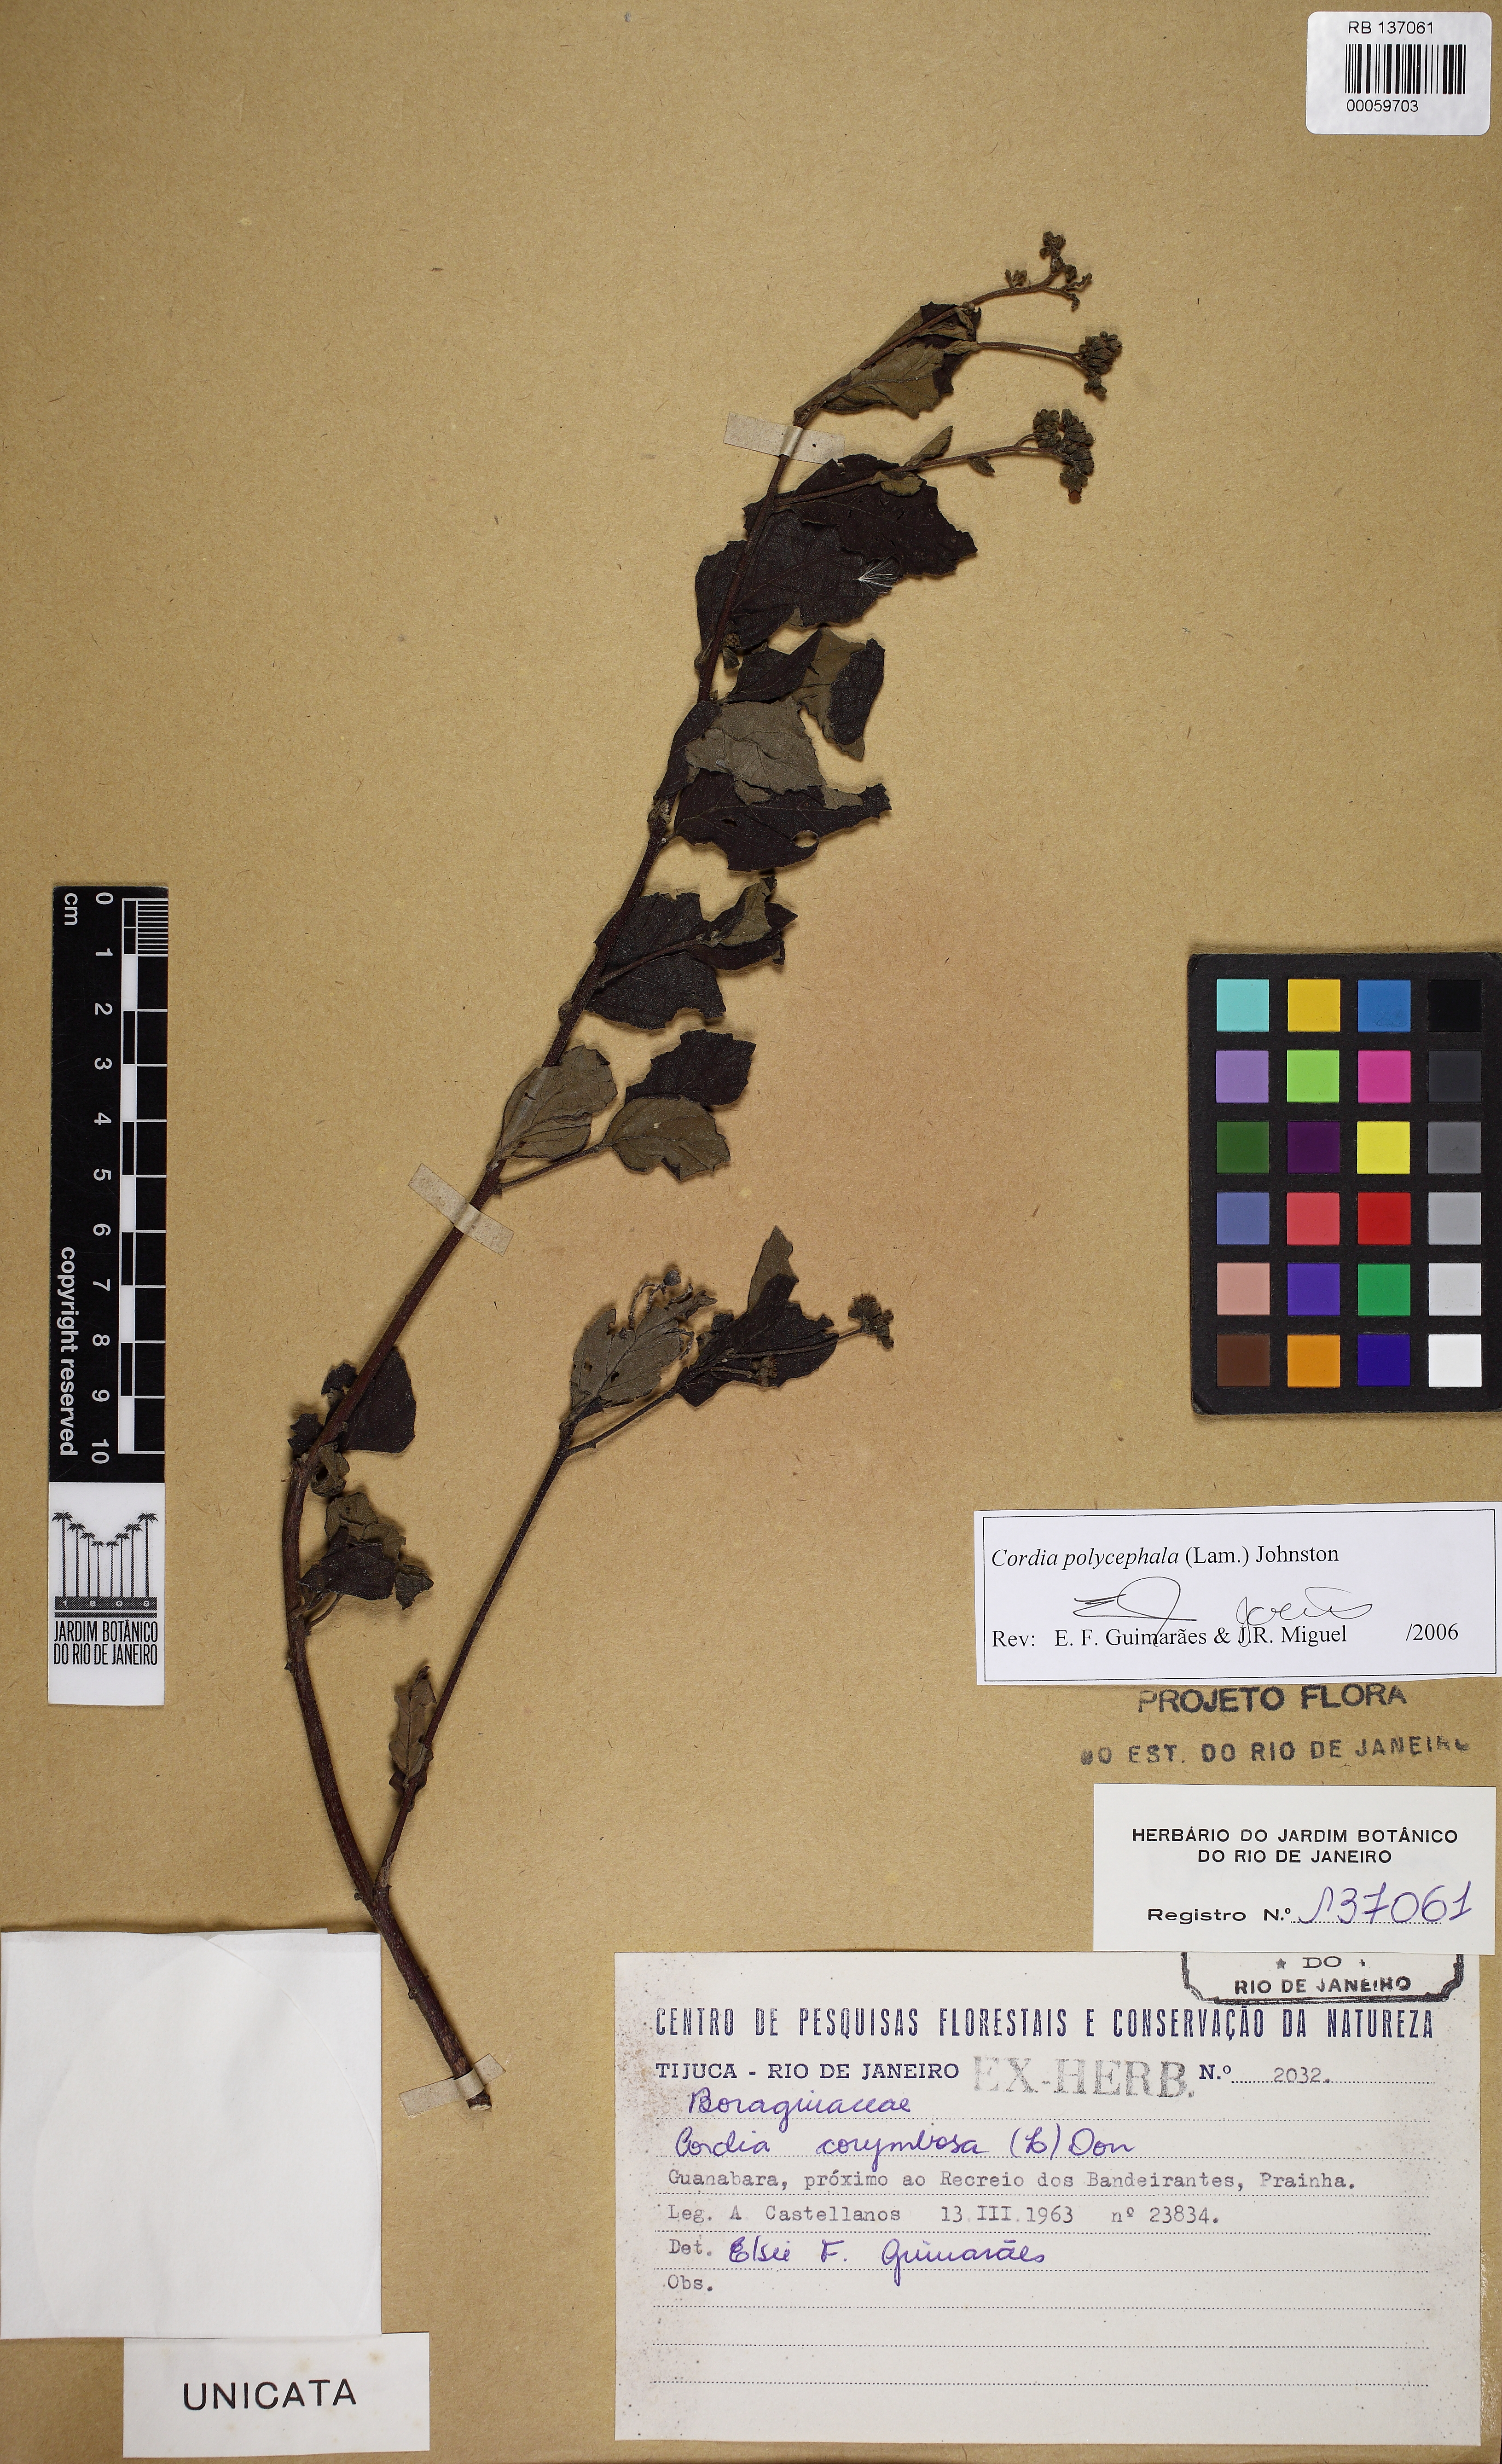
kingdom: Plantae
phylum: Tracheophyta
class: Magnoliopsida
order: Boraginales
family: Cordiaceae
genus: Varronia
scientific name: Varronia polycephala
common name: Black-sage
